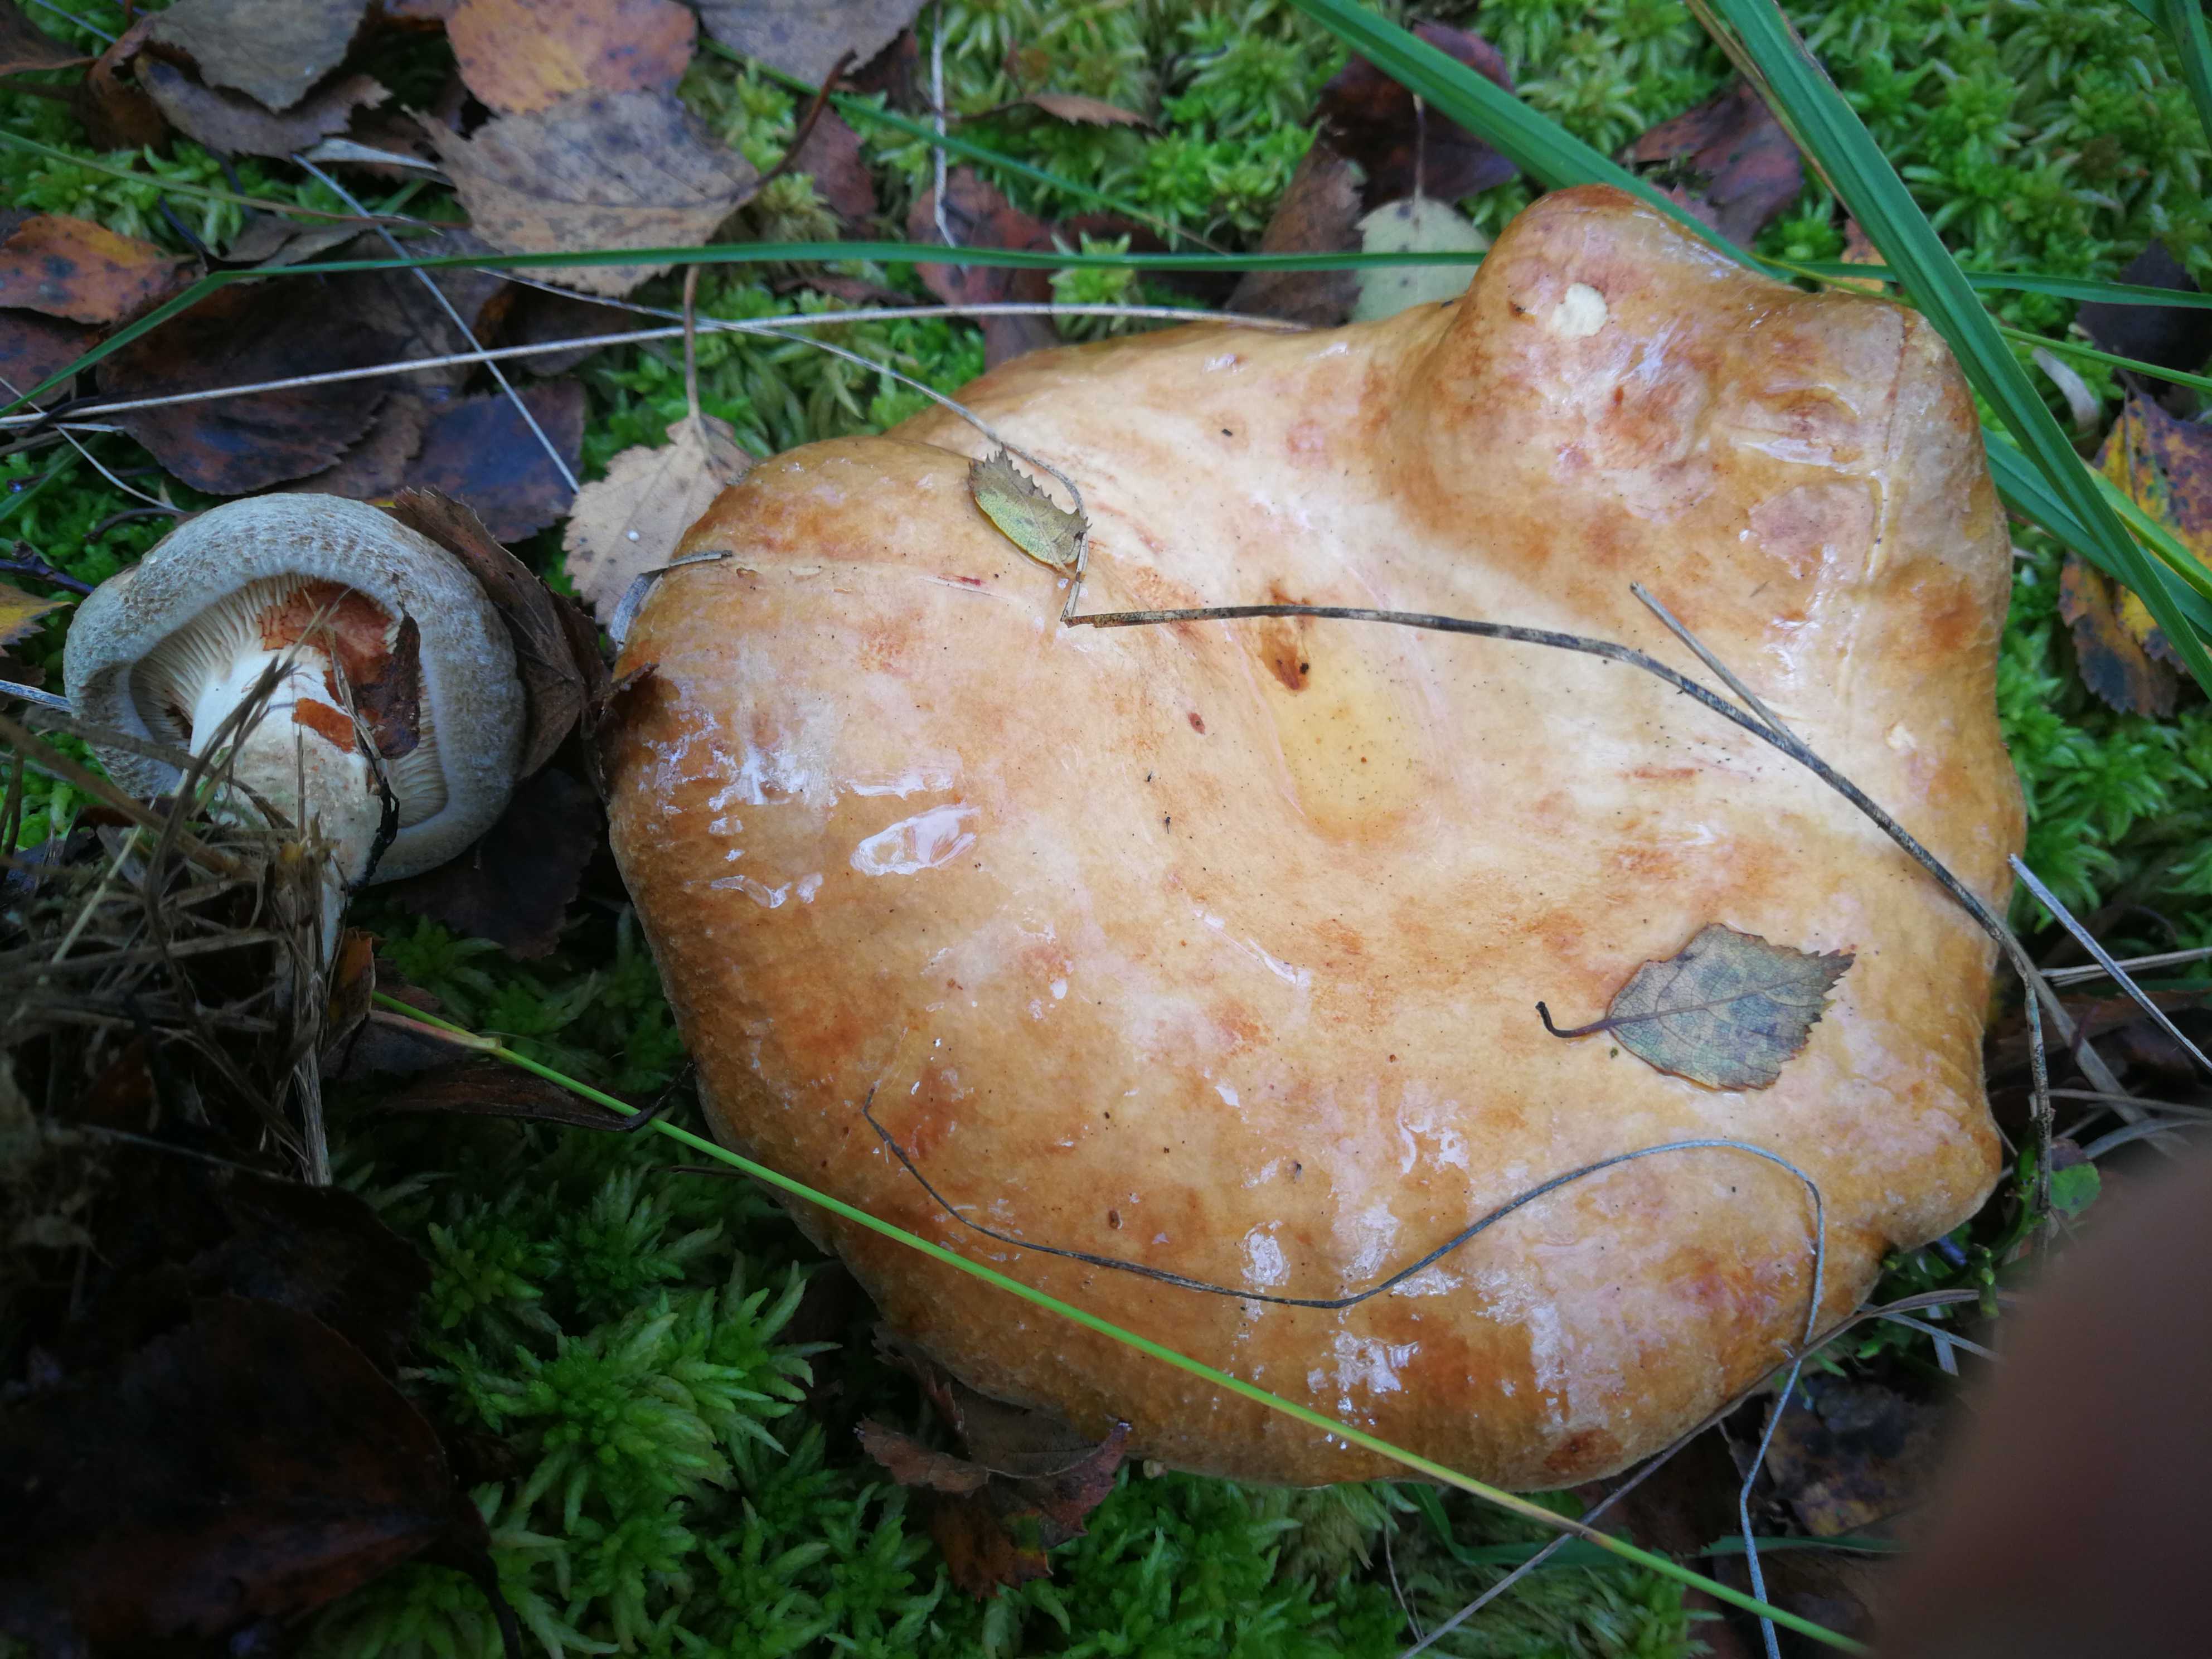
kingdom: Fungi
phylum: Basidiomycota
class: Agaricomycetes
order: Boletales
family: Paxillaceae
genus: Paxillus
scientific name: Paxillus involutus
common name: almindelig netbladhat
